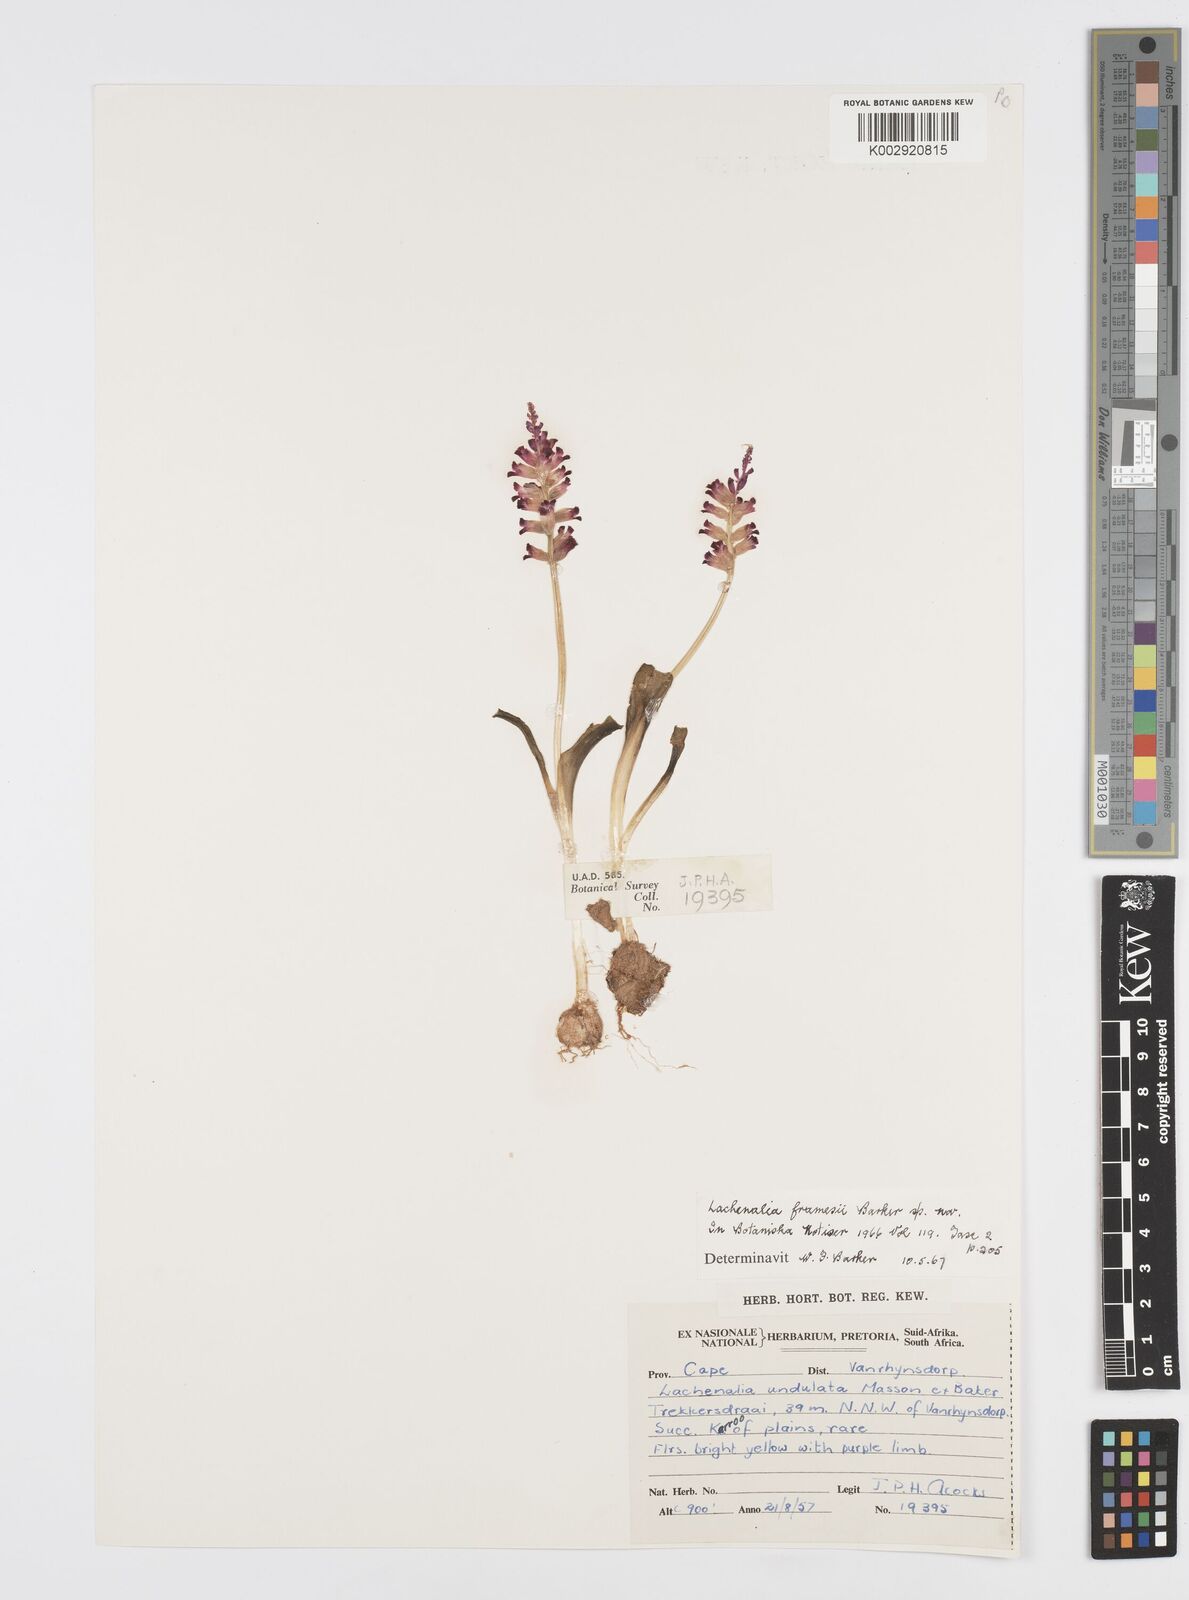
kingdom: Plantae
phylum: Tracheophyta
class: Liliopsida
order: Asparagales
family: Asparagaceae
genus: Lachenalia
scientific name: Lachenalia framesii
